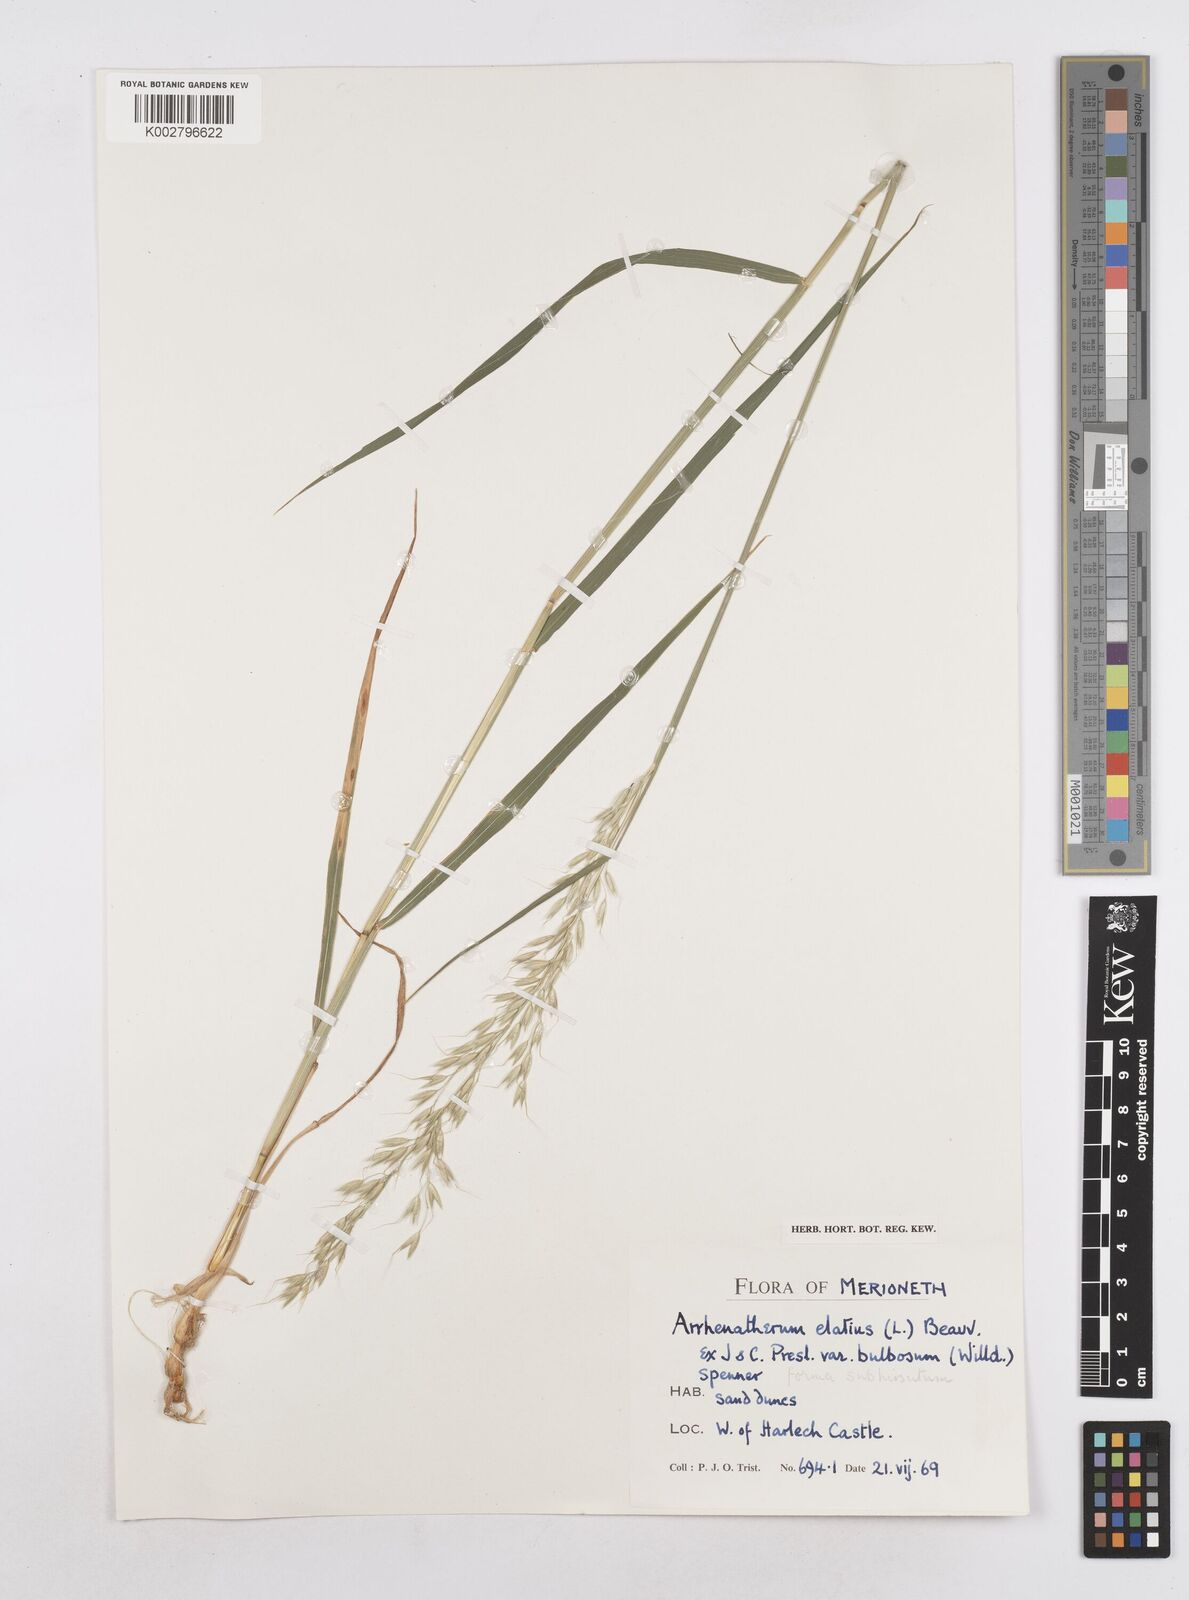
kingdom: Plantae
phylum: Tracheophyta
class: Liliopsida
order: Poales
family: Poaceae
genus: Arrhenatherum
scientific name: Arrhenatherum elatius
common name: Tall oatgrass
